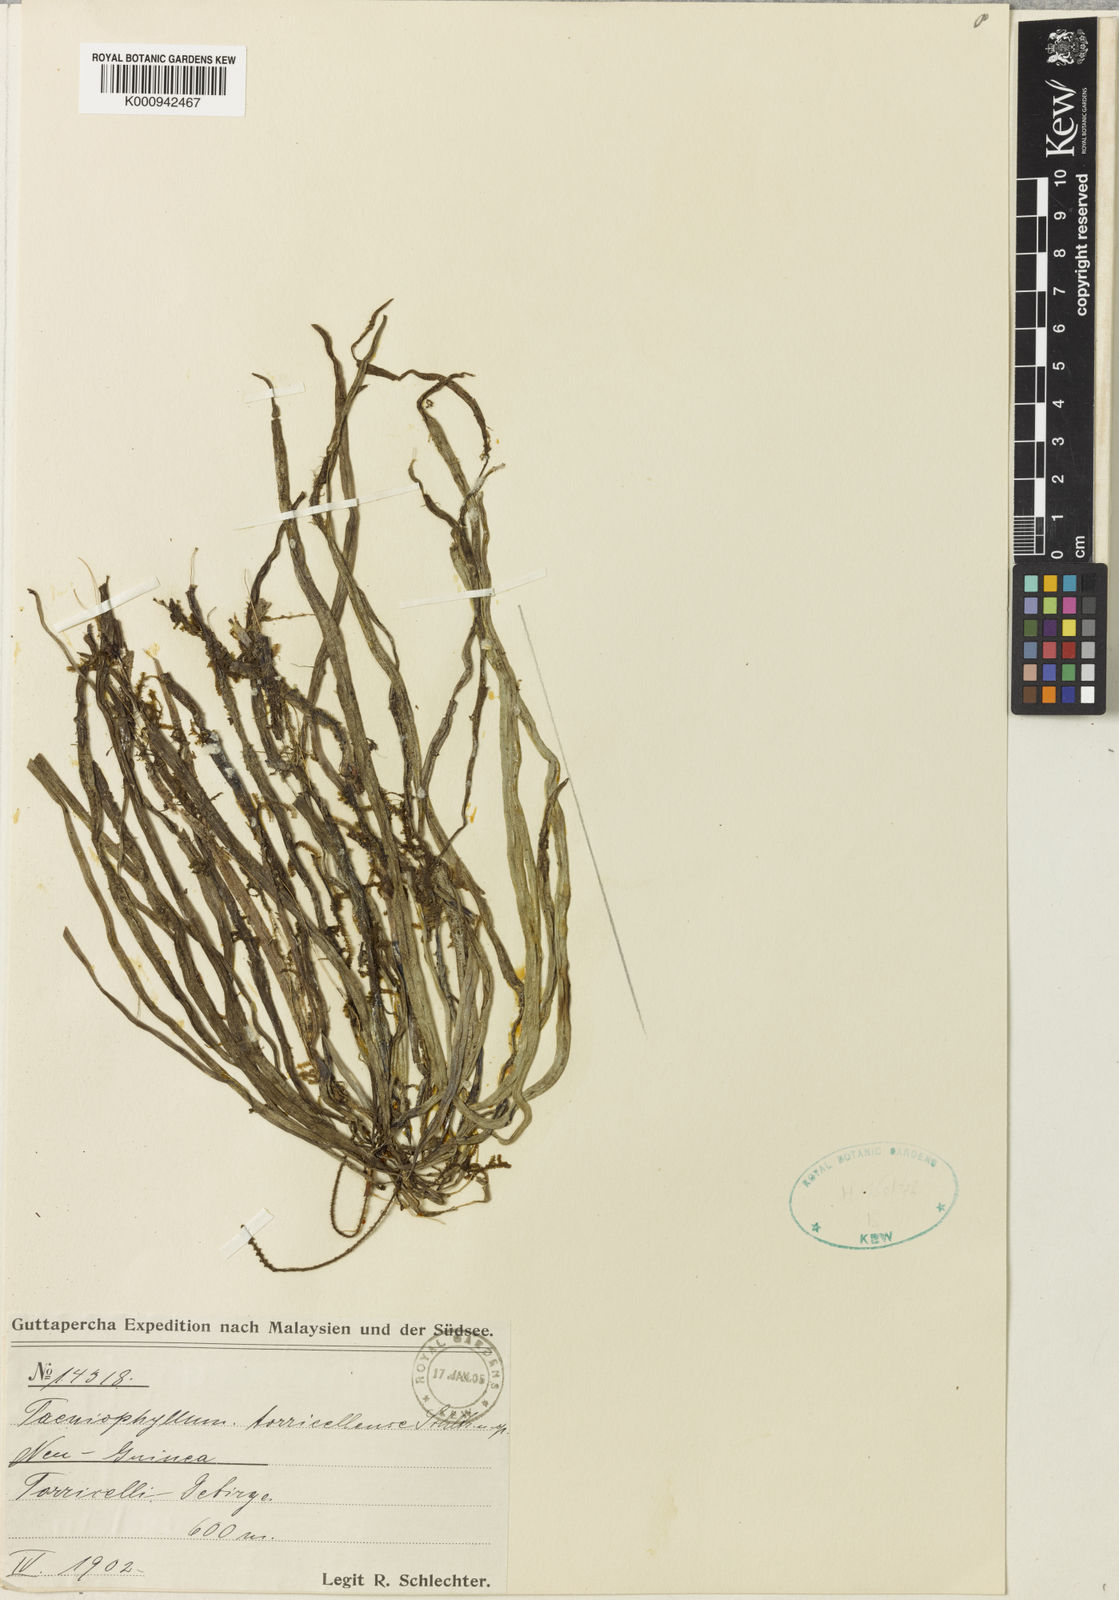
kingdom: Plantae
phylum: Tracheophyta
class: Liliopsida
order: Asparagales
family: Orchidaceae
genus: Taeniophyllum
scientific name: Taeniophyllum torricellense
